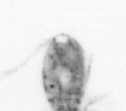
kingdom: Animalia
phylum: Arthropoda
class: Copepoda
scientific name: Copepoda
